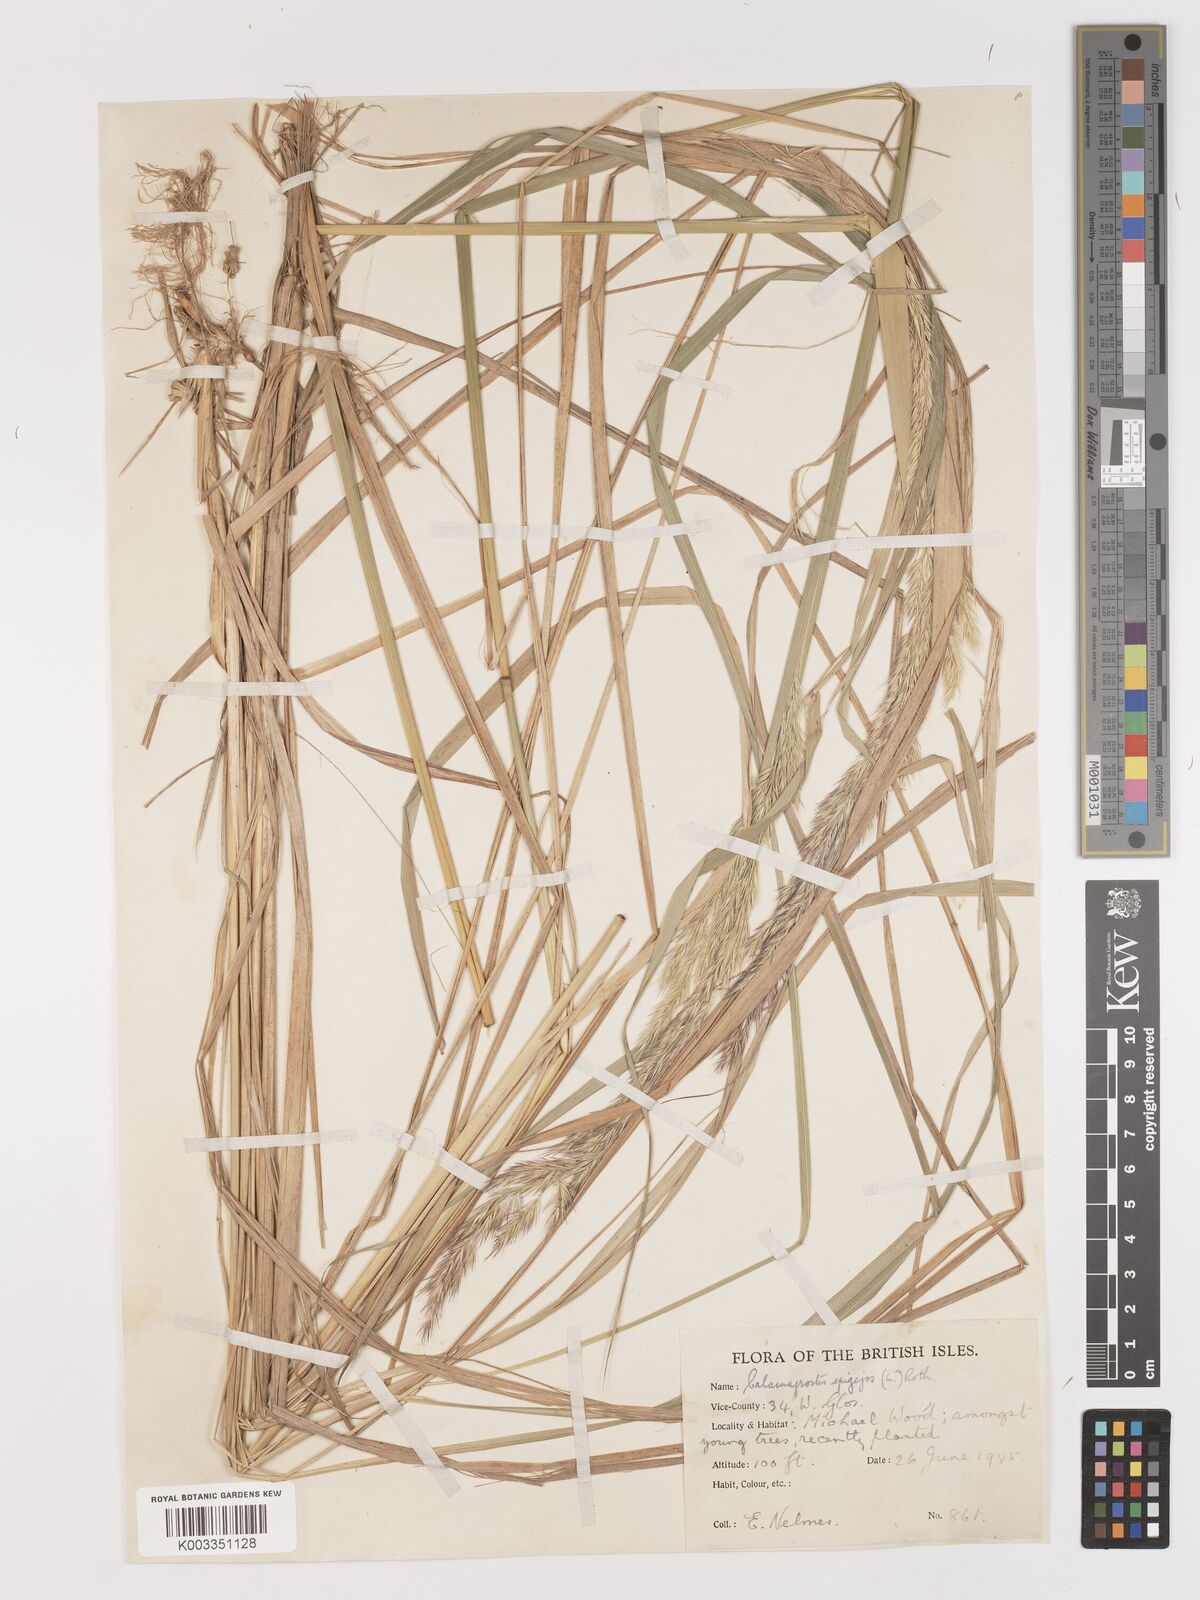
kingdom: Plantae
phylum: Tracheophyta
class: Liliopsida
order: Poales
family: Poaceae
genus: Calamagrostis
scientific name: Calamagrostis
